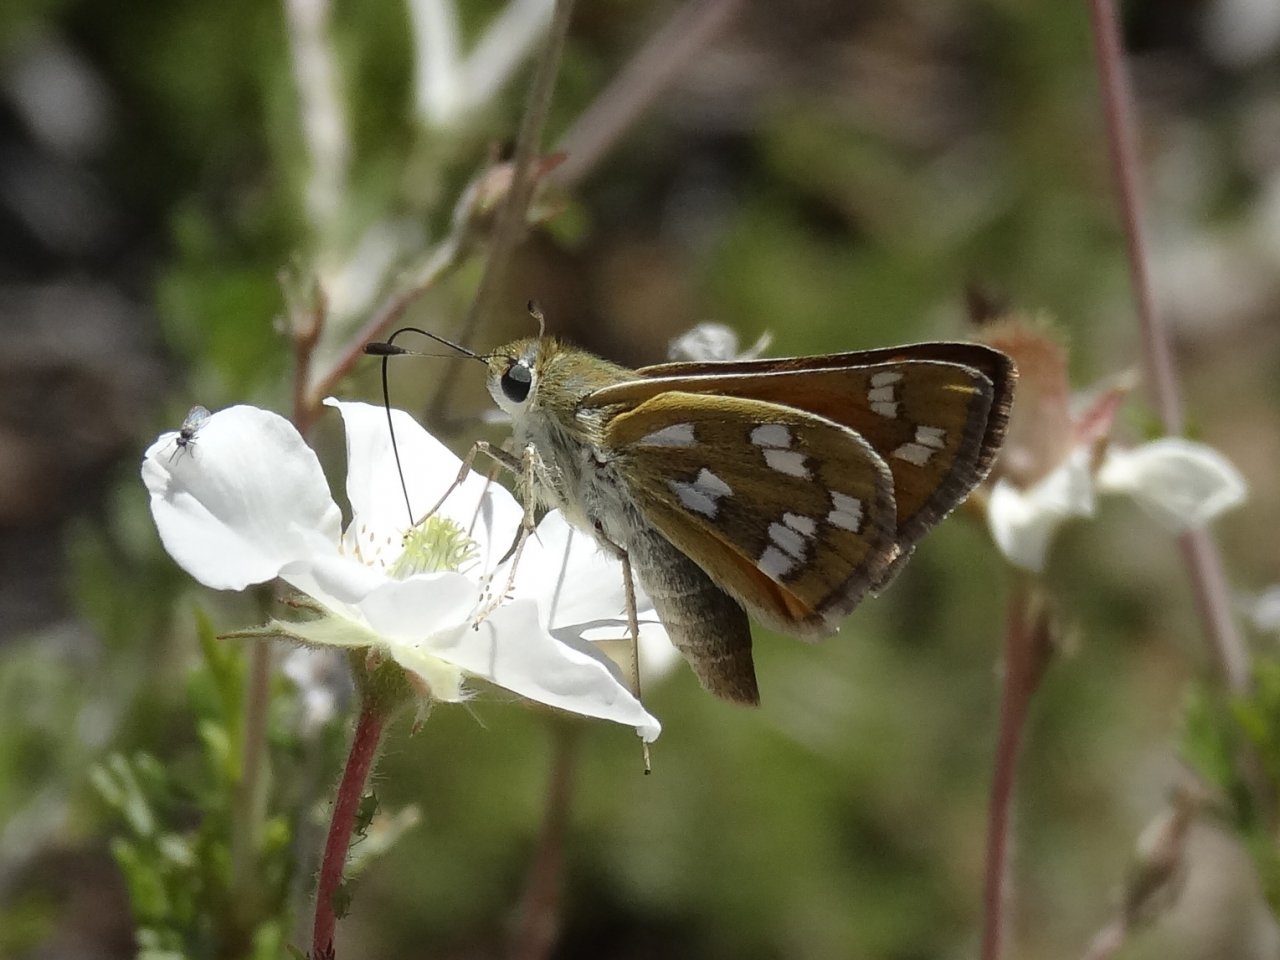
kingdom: Animalia
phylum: Arthropoda
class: Insecta
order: Lepidoptera
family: Hesperiidae
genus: Hesperia
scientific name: Hesperia pahaska
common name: Pahaska Skipper
